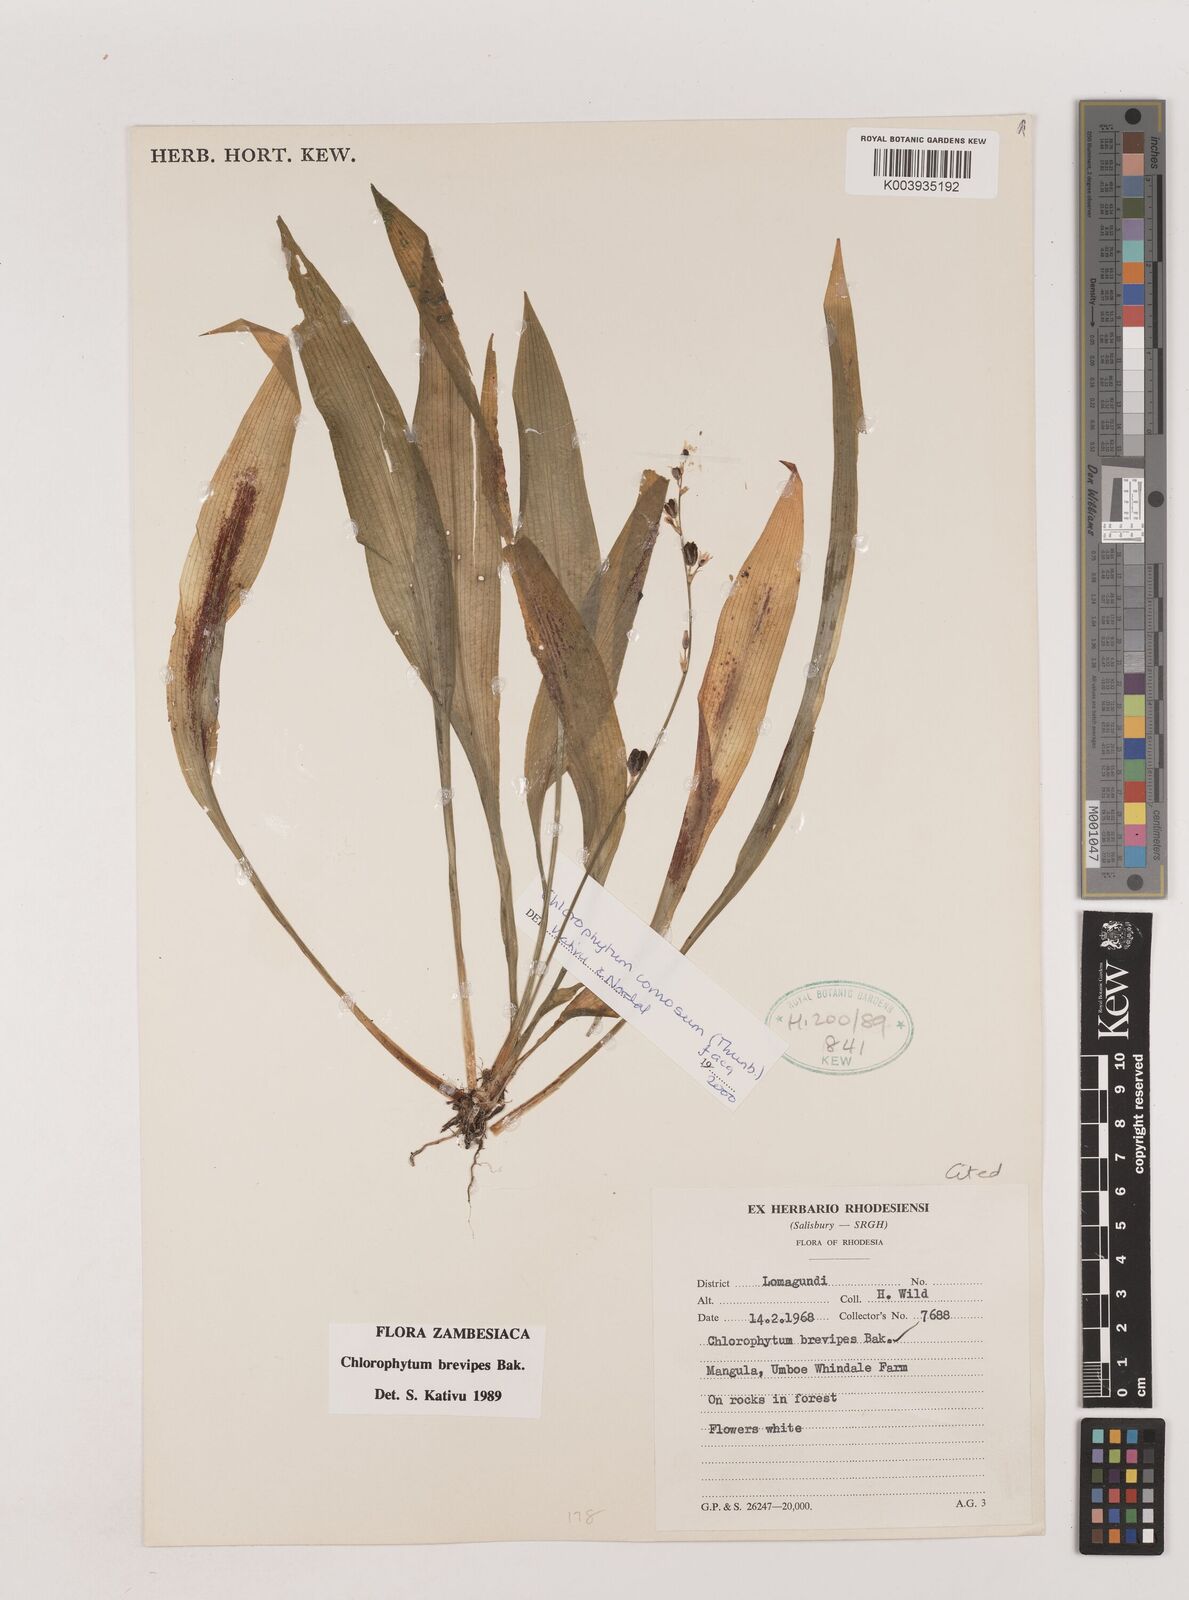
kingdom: Plantae
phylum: Tracheophyta
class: Liliopsida
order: Asparagales
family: Asparagaceae
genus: Chlorophytum
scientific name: Chlorophytum comosum
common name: Spider plant
